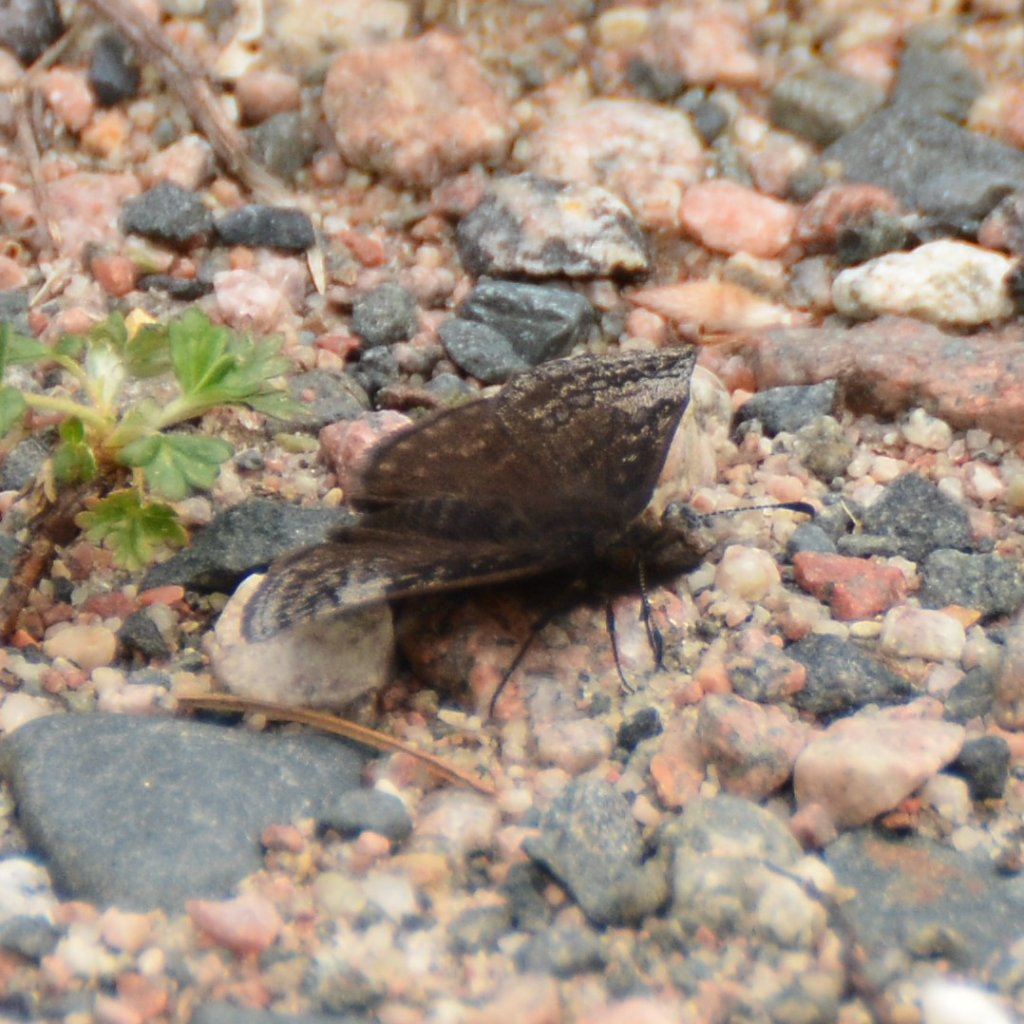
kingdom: Animalia
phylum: Arthropoda
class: Insecta
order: Lepidoptera
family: Hesperiidae
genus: Erynnis
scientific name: Erynnis icelus
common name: Dreamy Duskywing
